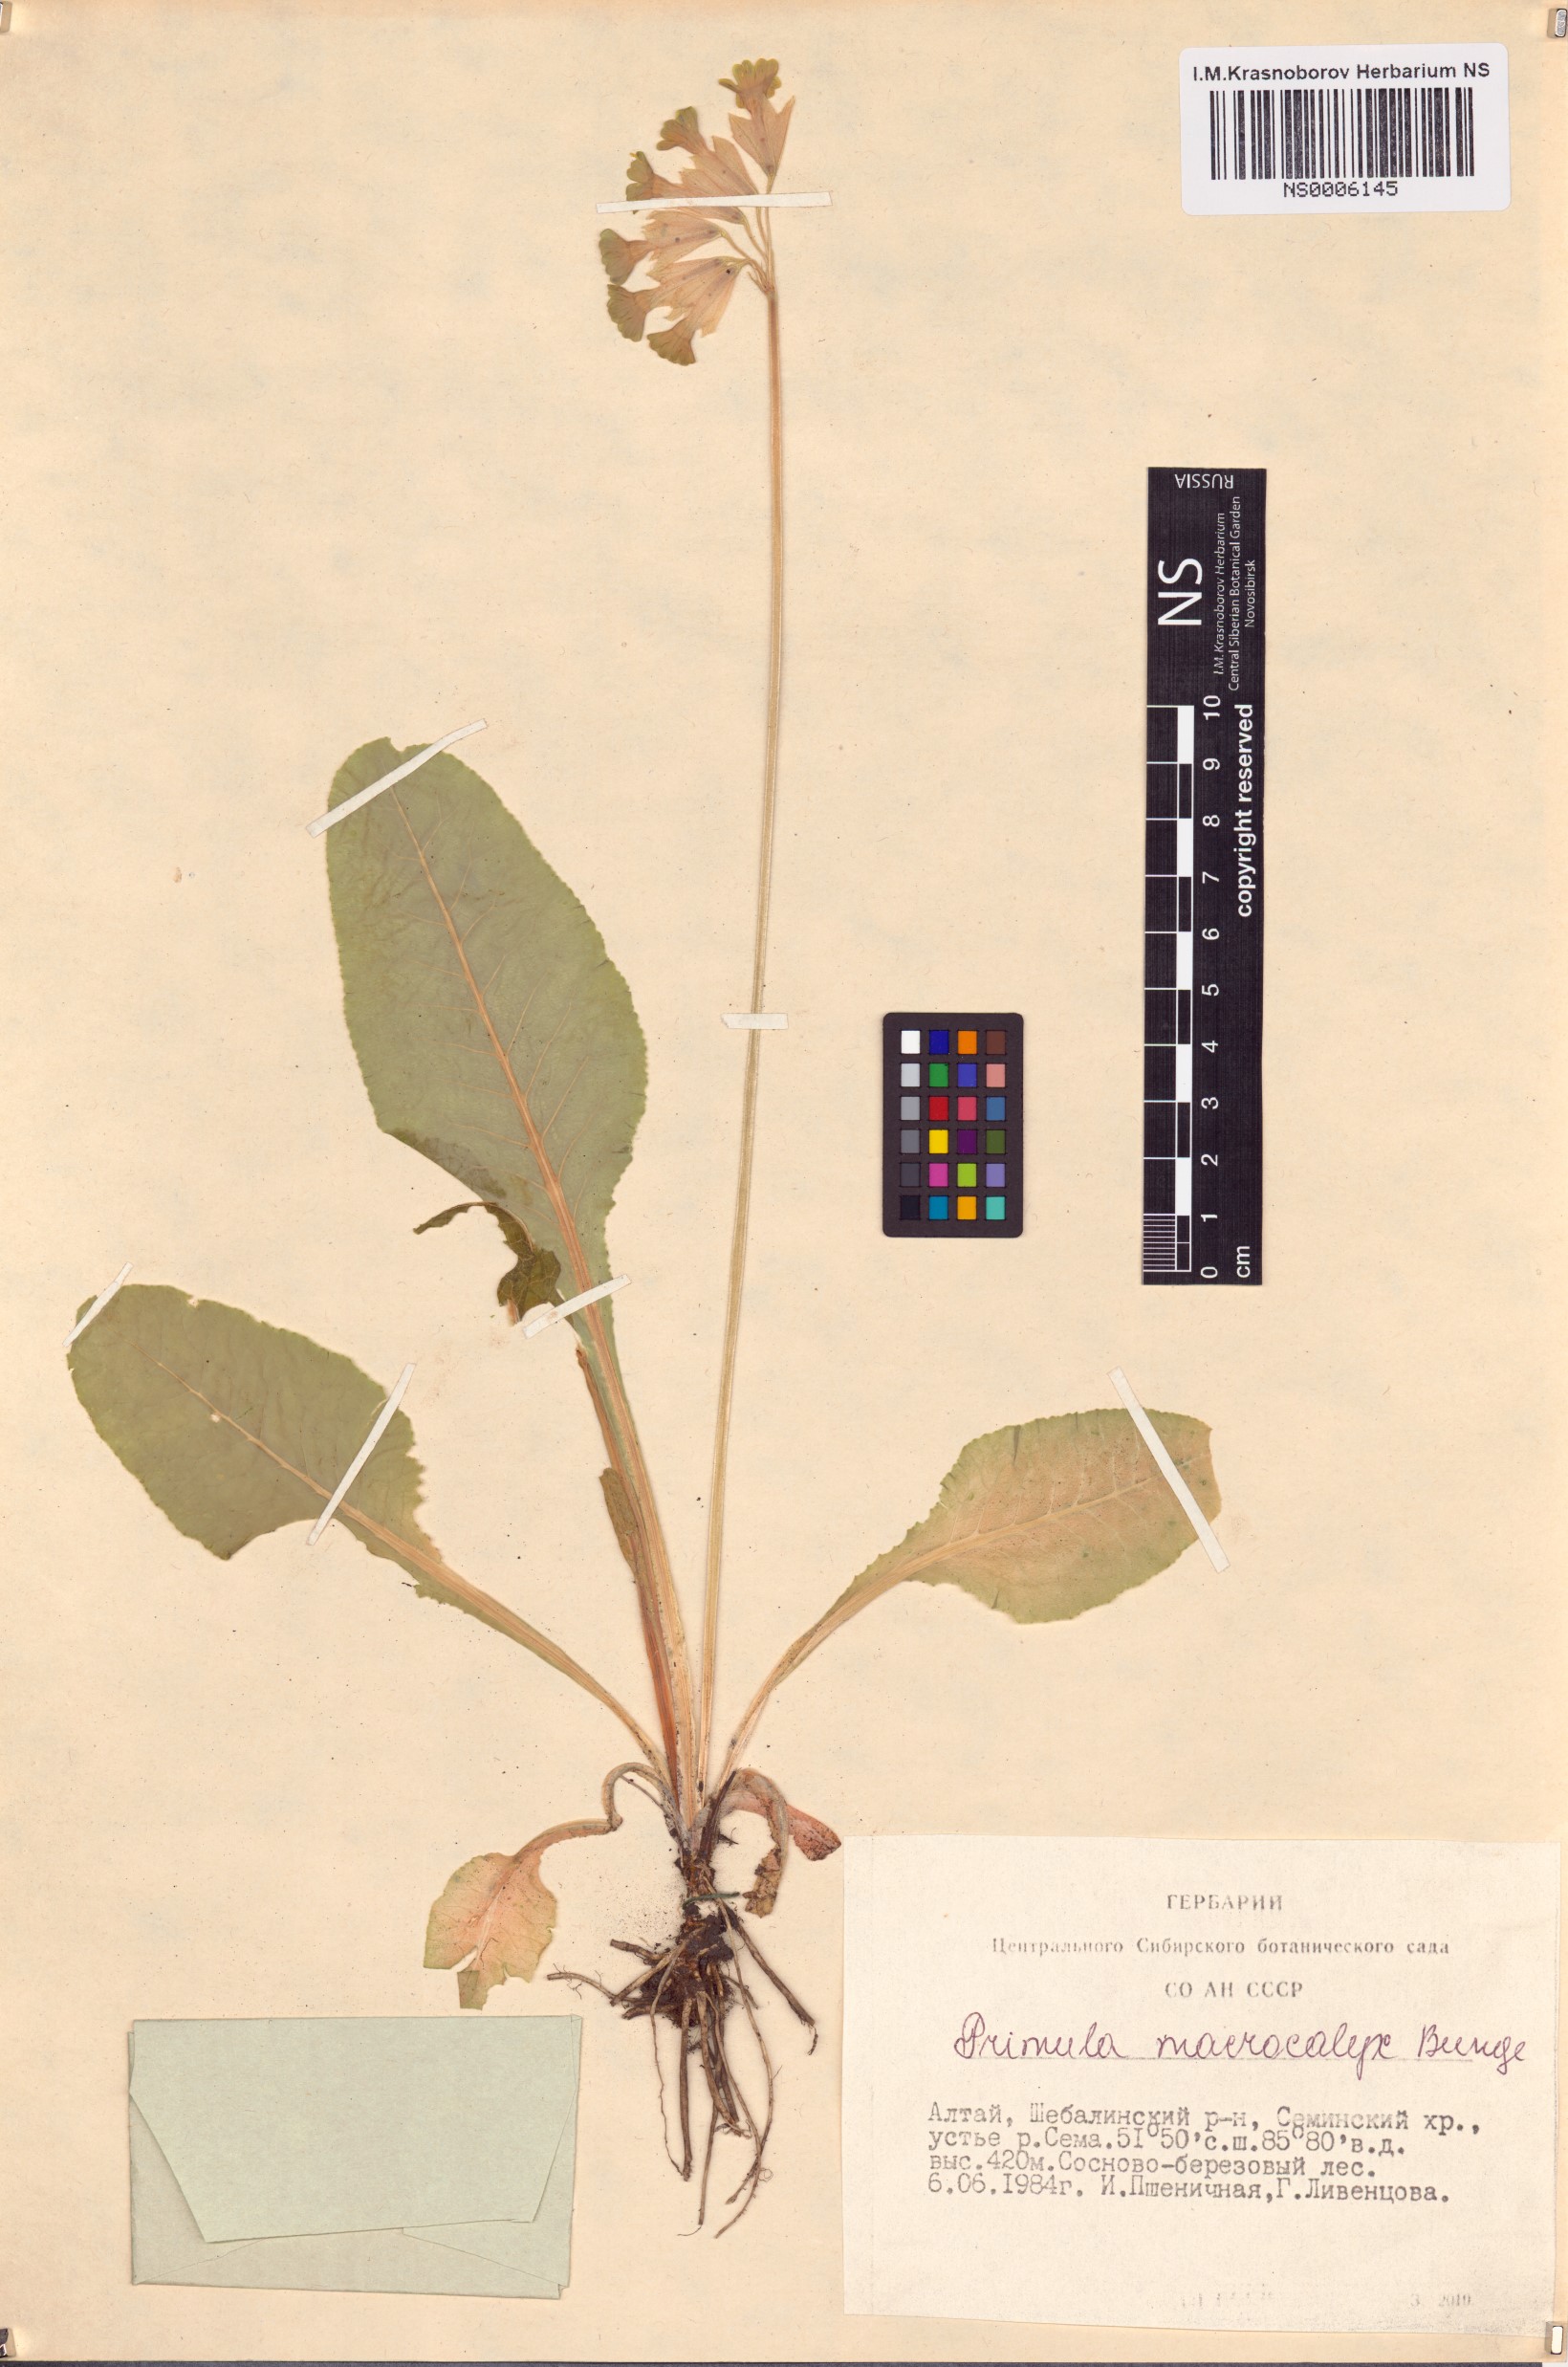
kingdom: Plantae
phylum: Tracheophyta
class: Magnoliopsida
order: Ericales
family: Primulaceae
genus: Primula
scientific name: Primula veris
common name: Cowslip
